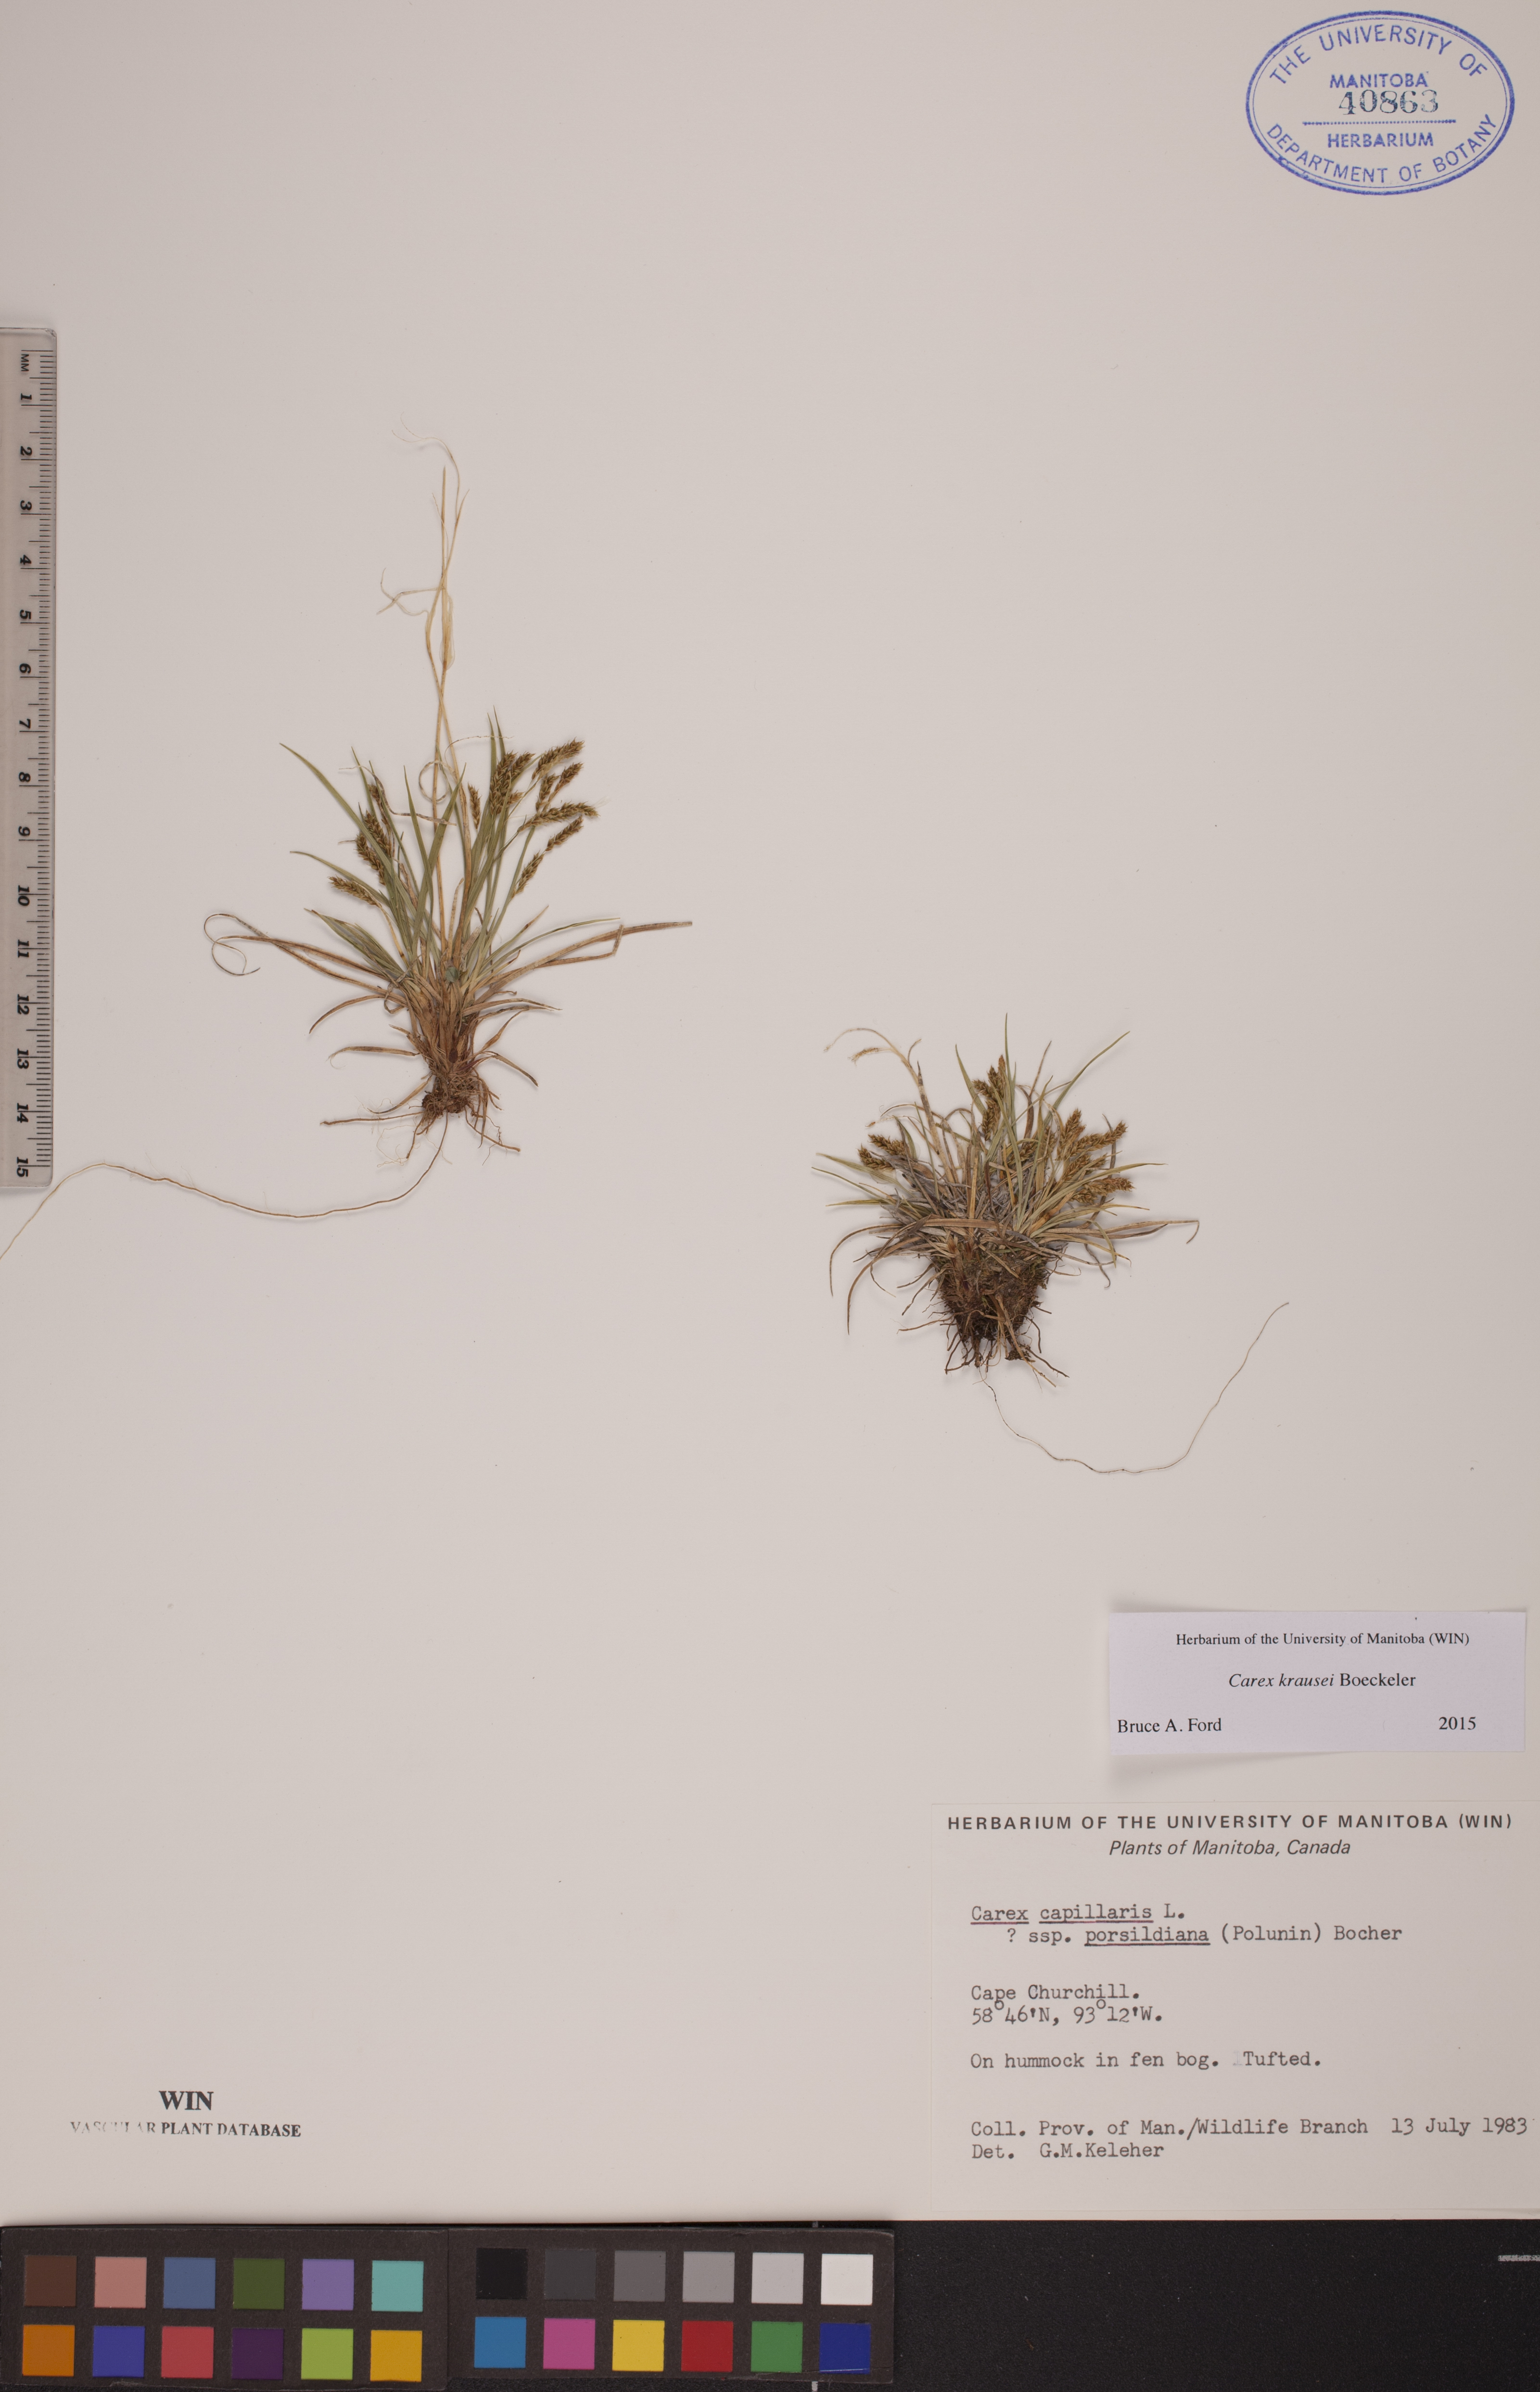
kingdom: Plantae
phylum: Tracheophyta
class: Liliopsida
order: Poales
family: Cyperaceae
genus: Carex
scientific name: Carex krausei
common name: Krause's sedge
